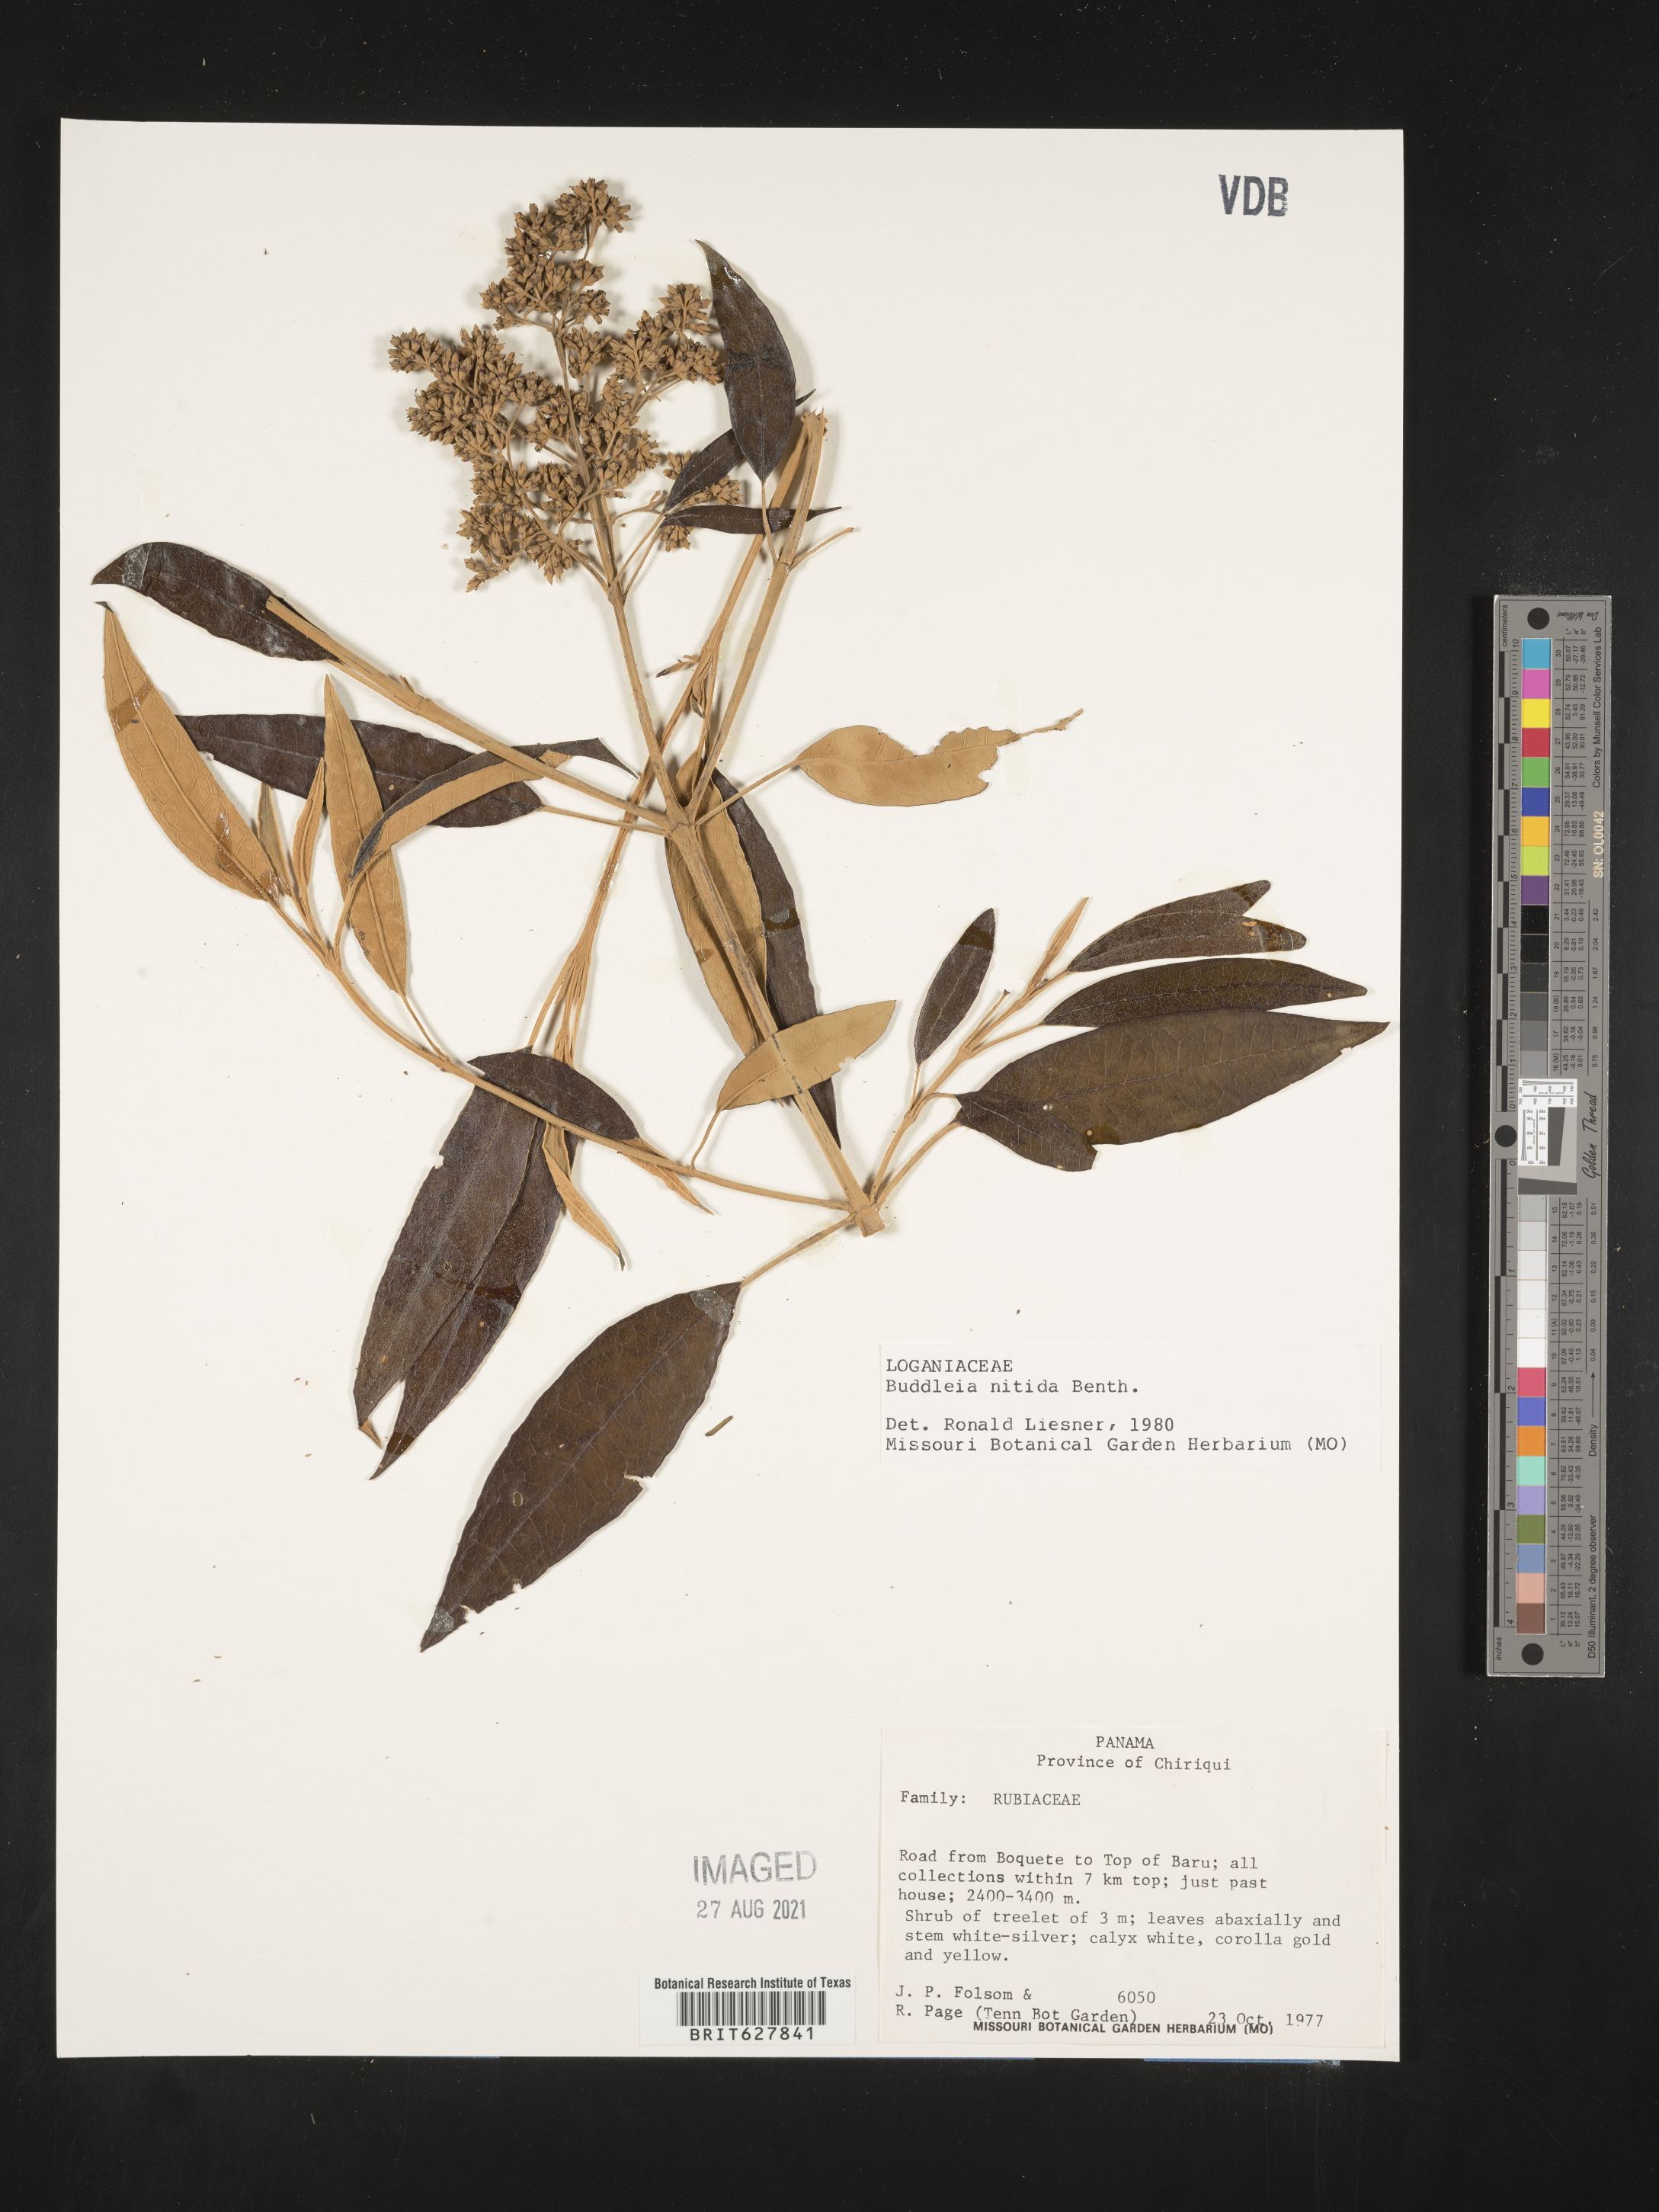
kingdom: Plantae
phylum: Tracheophyta
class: Magnoliopsida
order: Lamiales
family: Scrophulariaceae
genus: Buddleja
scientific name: Buddleja
